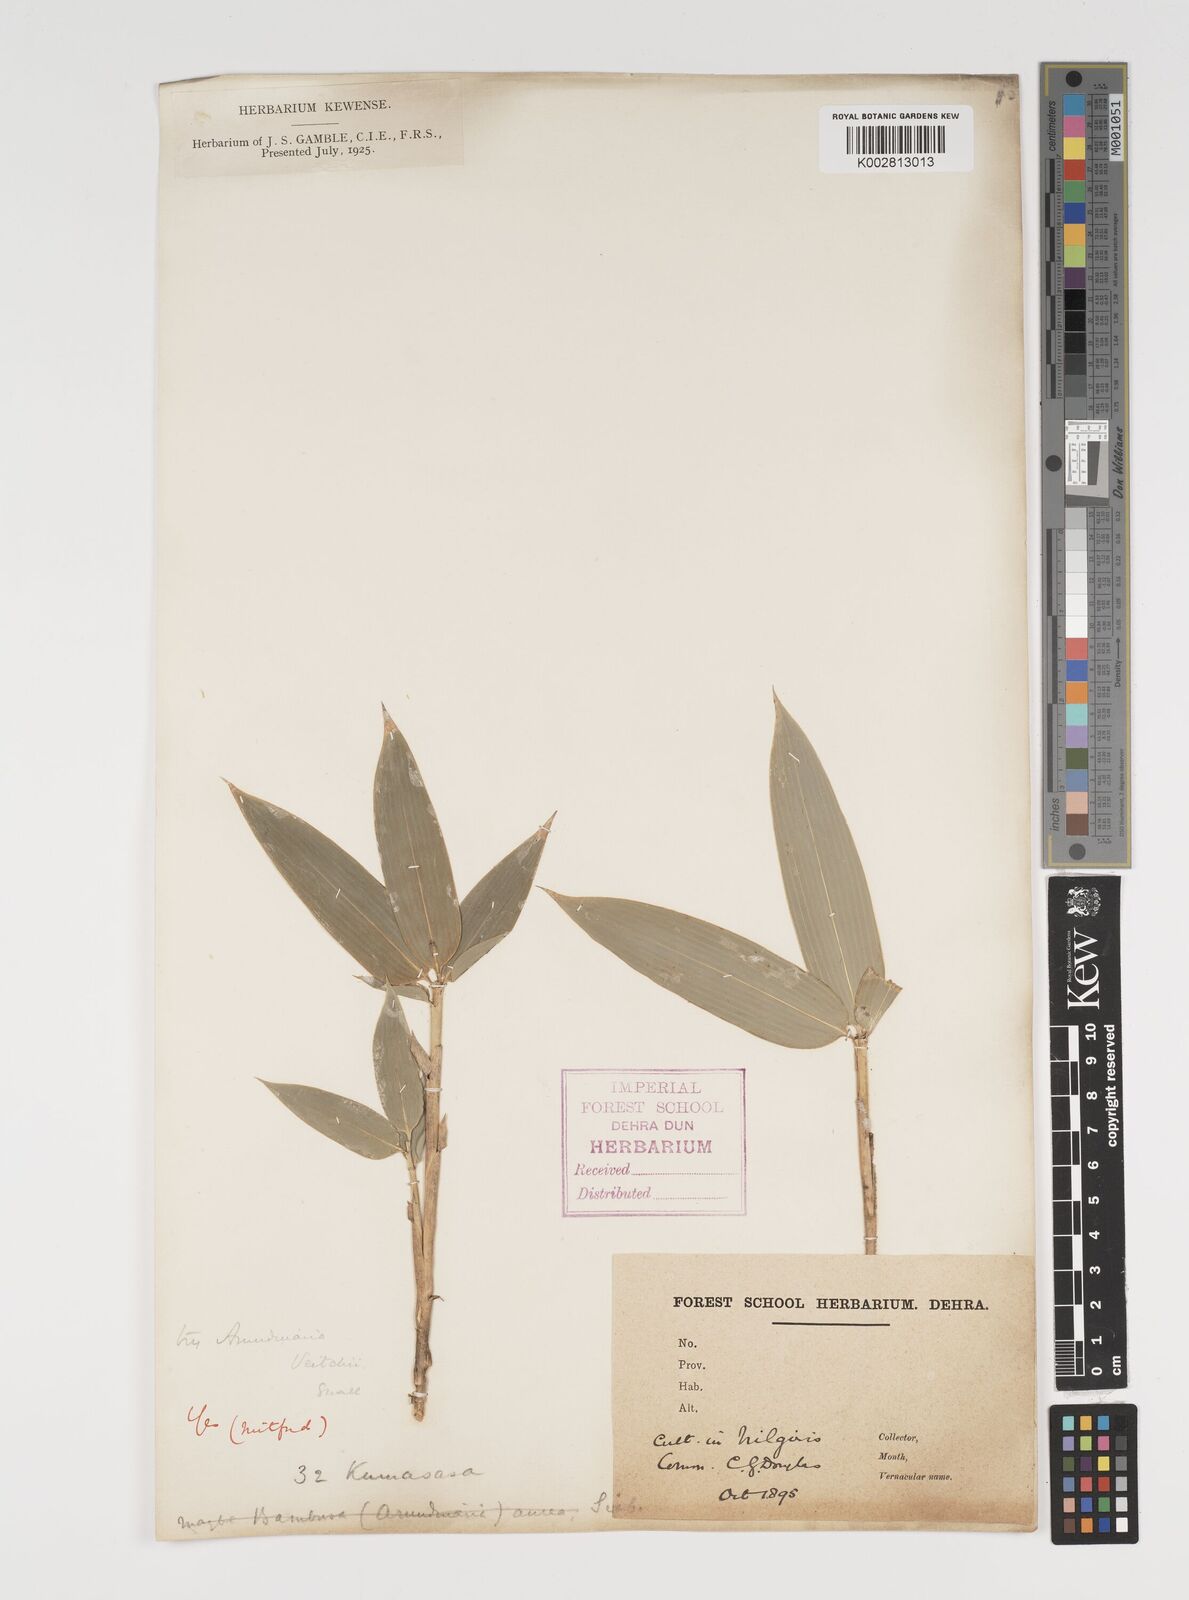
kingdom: Plantae
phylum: Tracheophyta
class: Liliopsida
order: Poales
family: Poaceae
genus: Sasa
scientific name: Sasa veitchii
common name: Veitch's bamboo
